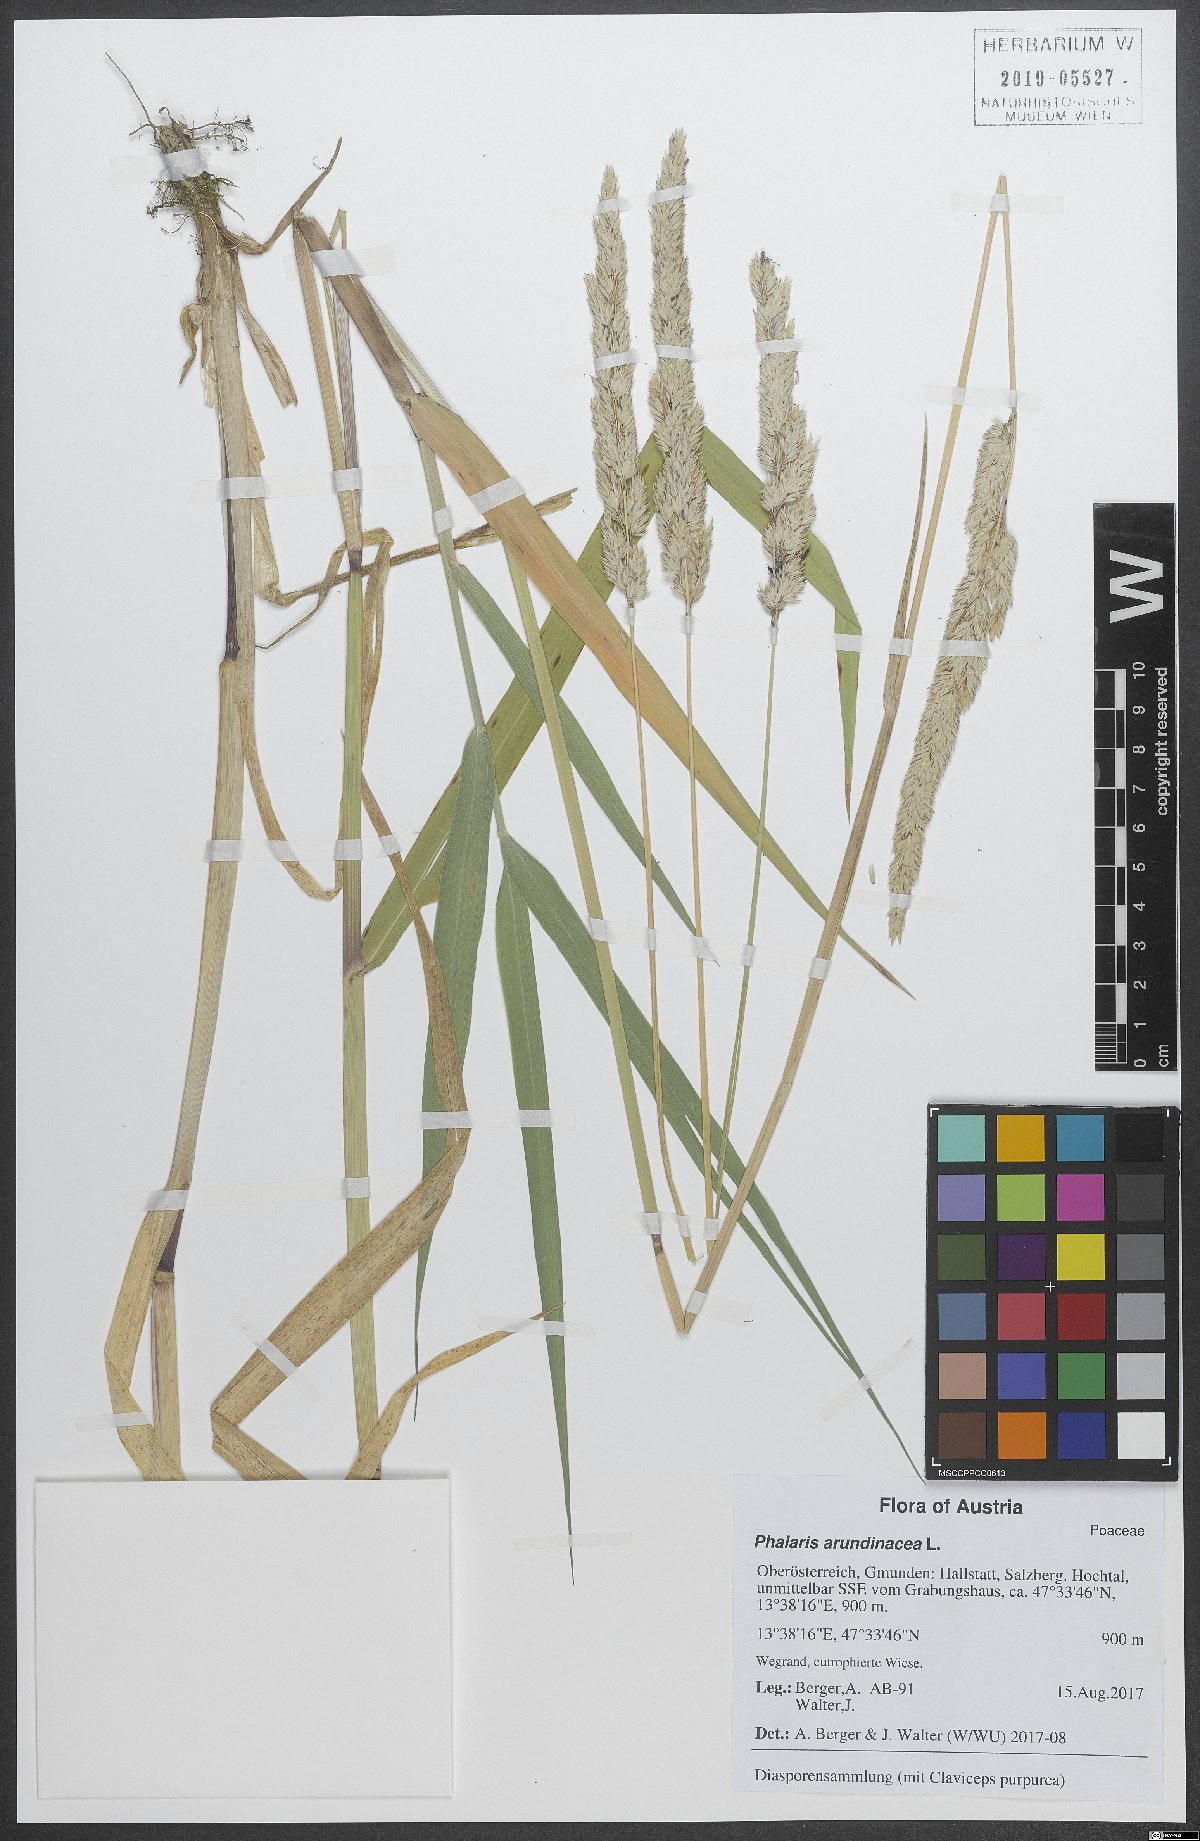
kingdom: Plantae
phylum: Tracheophyta
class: Liliopsida
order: Poales
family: Poaceae
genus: Phalaris
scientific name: Phalaris arundinacea
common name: Reed canary-grass
